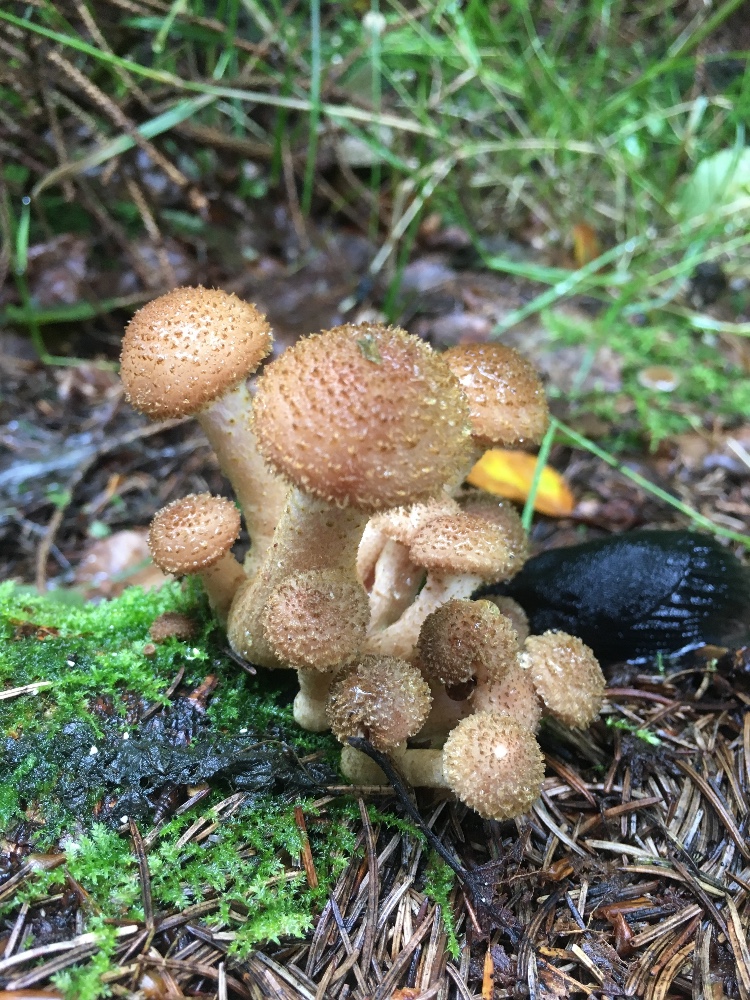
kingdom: Fungi
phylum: Basidiomycota
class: Agaricomycetes
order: Agaricales
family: Physalacriaceae
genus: Armillaria
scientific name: Armillaria ostoyae
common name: mørk honningsvamp
